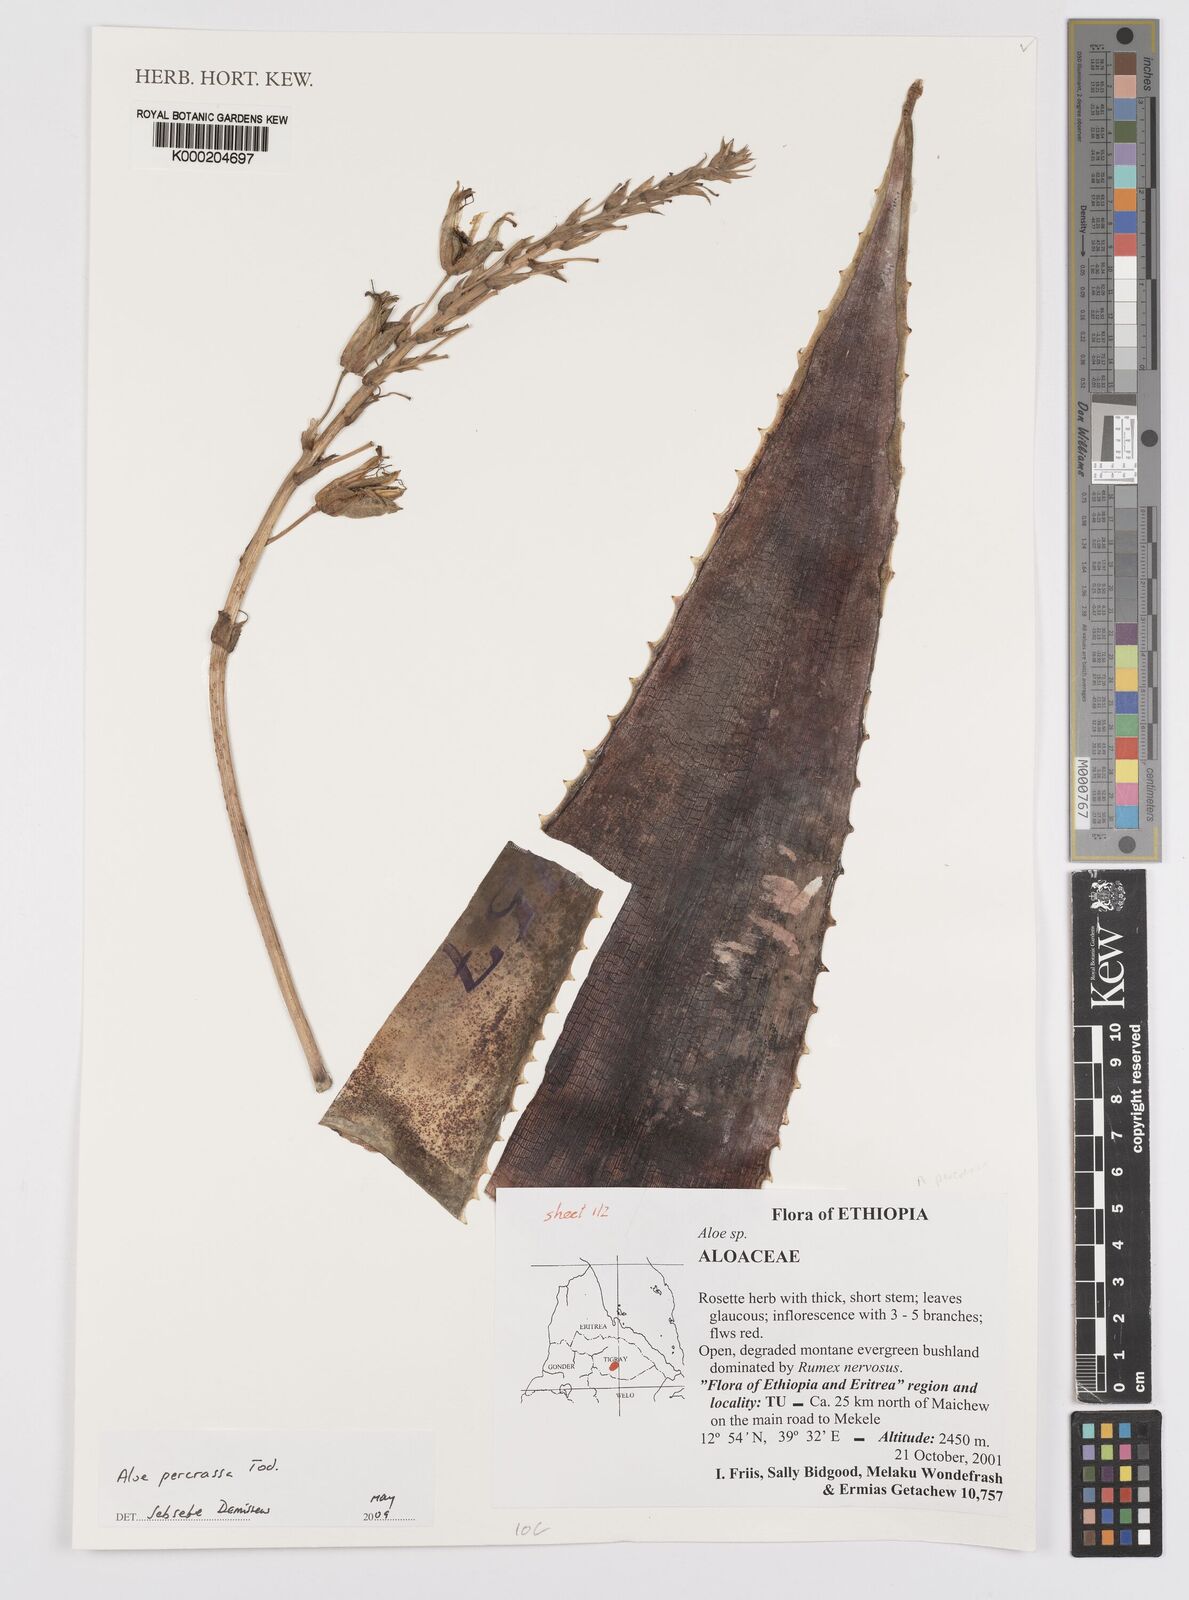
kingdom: Plantae
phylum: Tracheophyta
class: Liliopsida
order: Asparagales
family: Asphodelaceae
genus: Aloe
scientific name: Aloe percrassa
